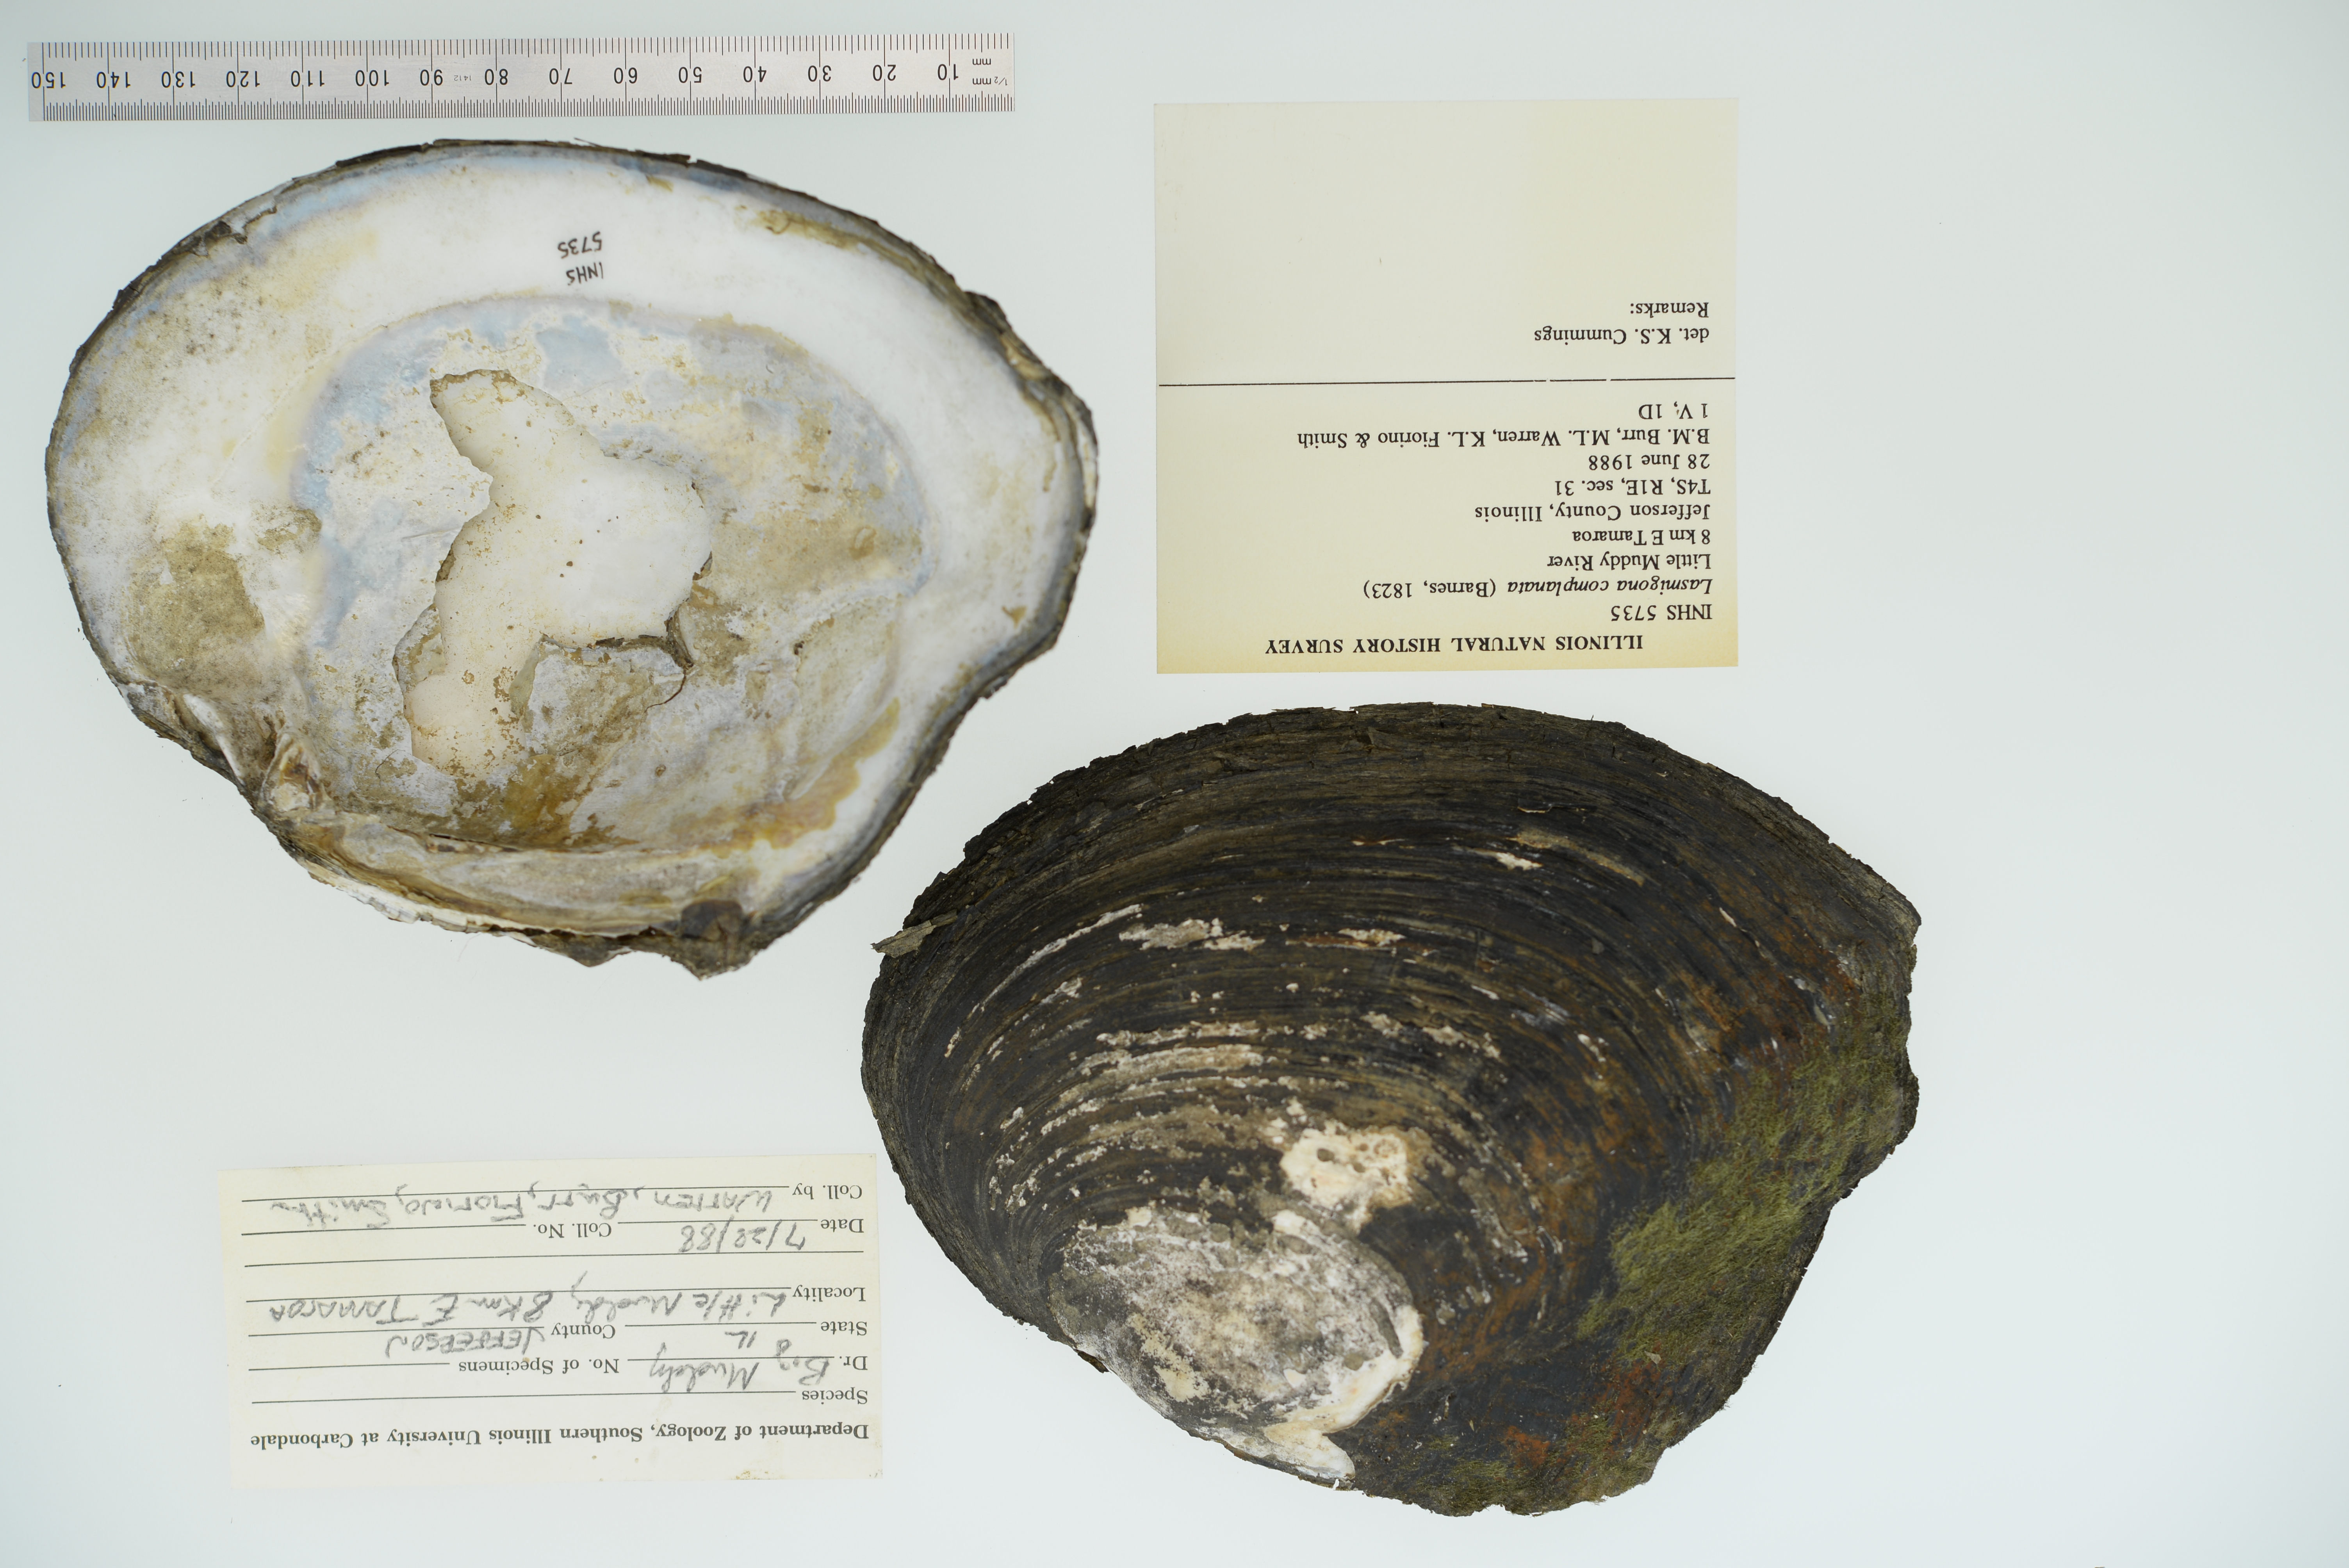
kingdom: Animalia
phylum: Mollusca
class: Bivalvia
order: Unionida
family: Unionidae
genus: Lasmigona
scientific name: Lasmigona complanata
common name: White heelsplitter
